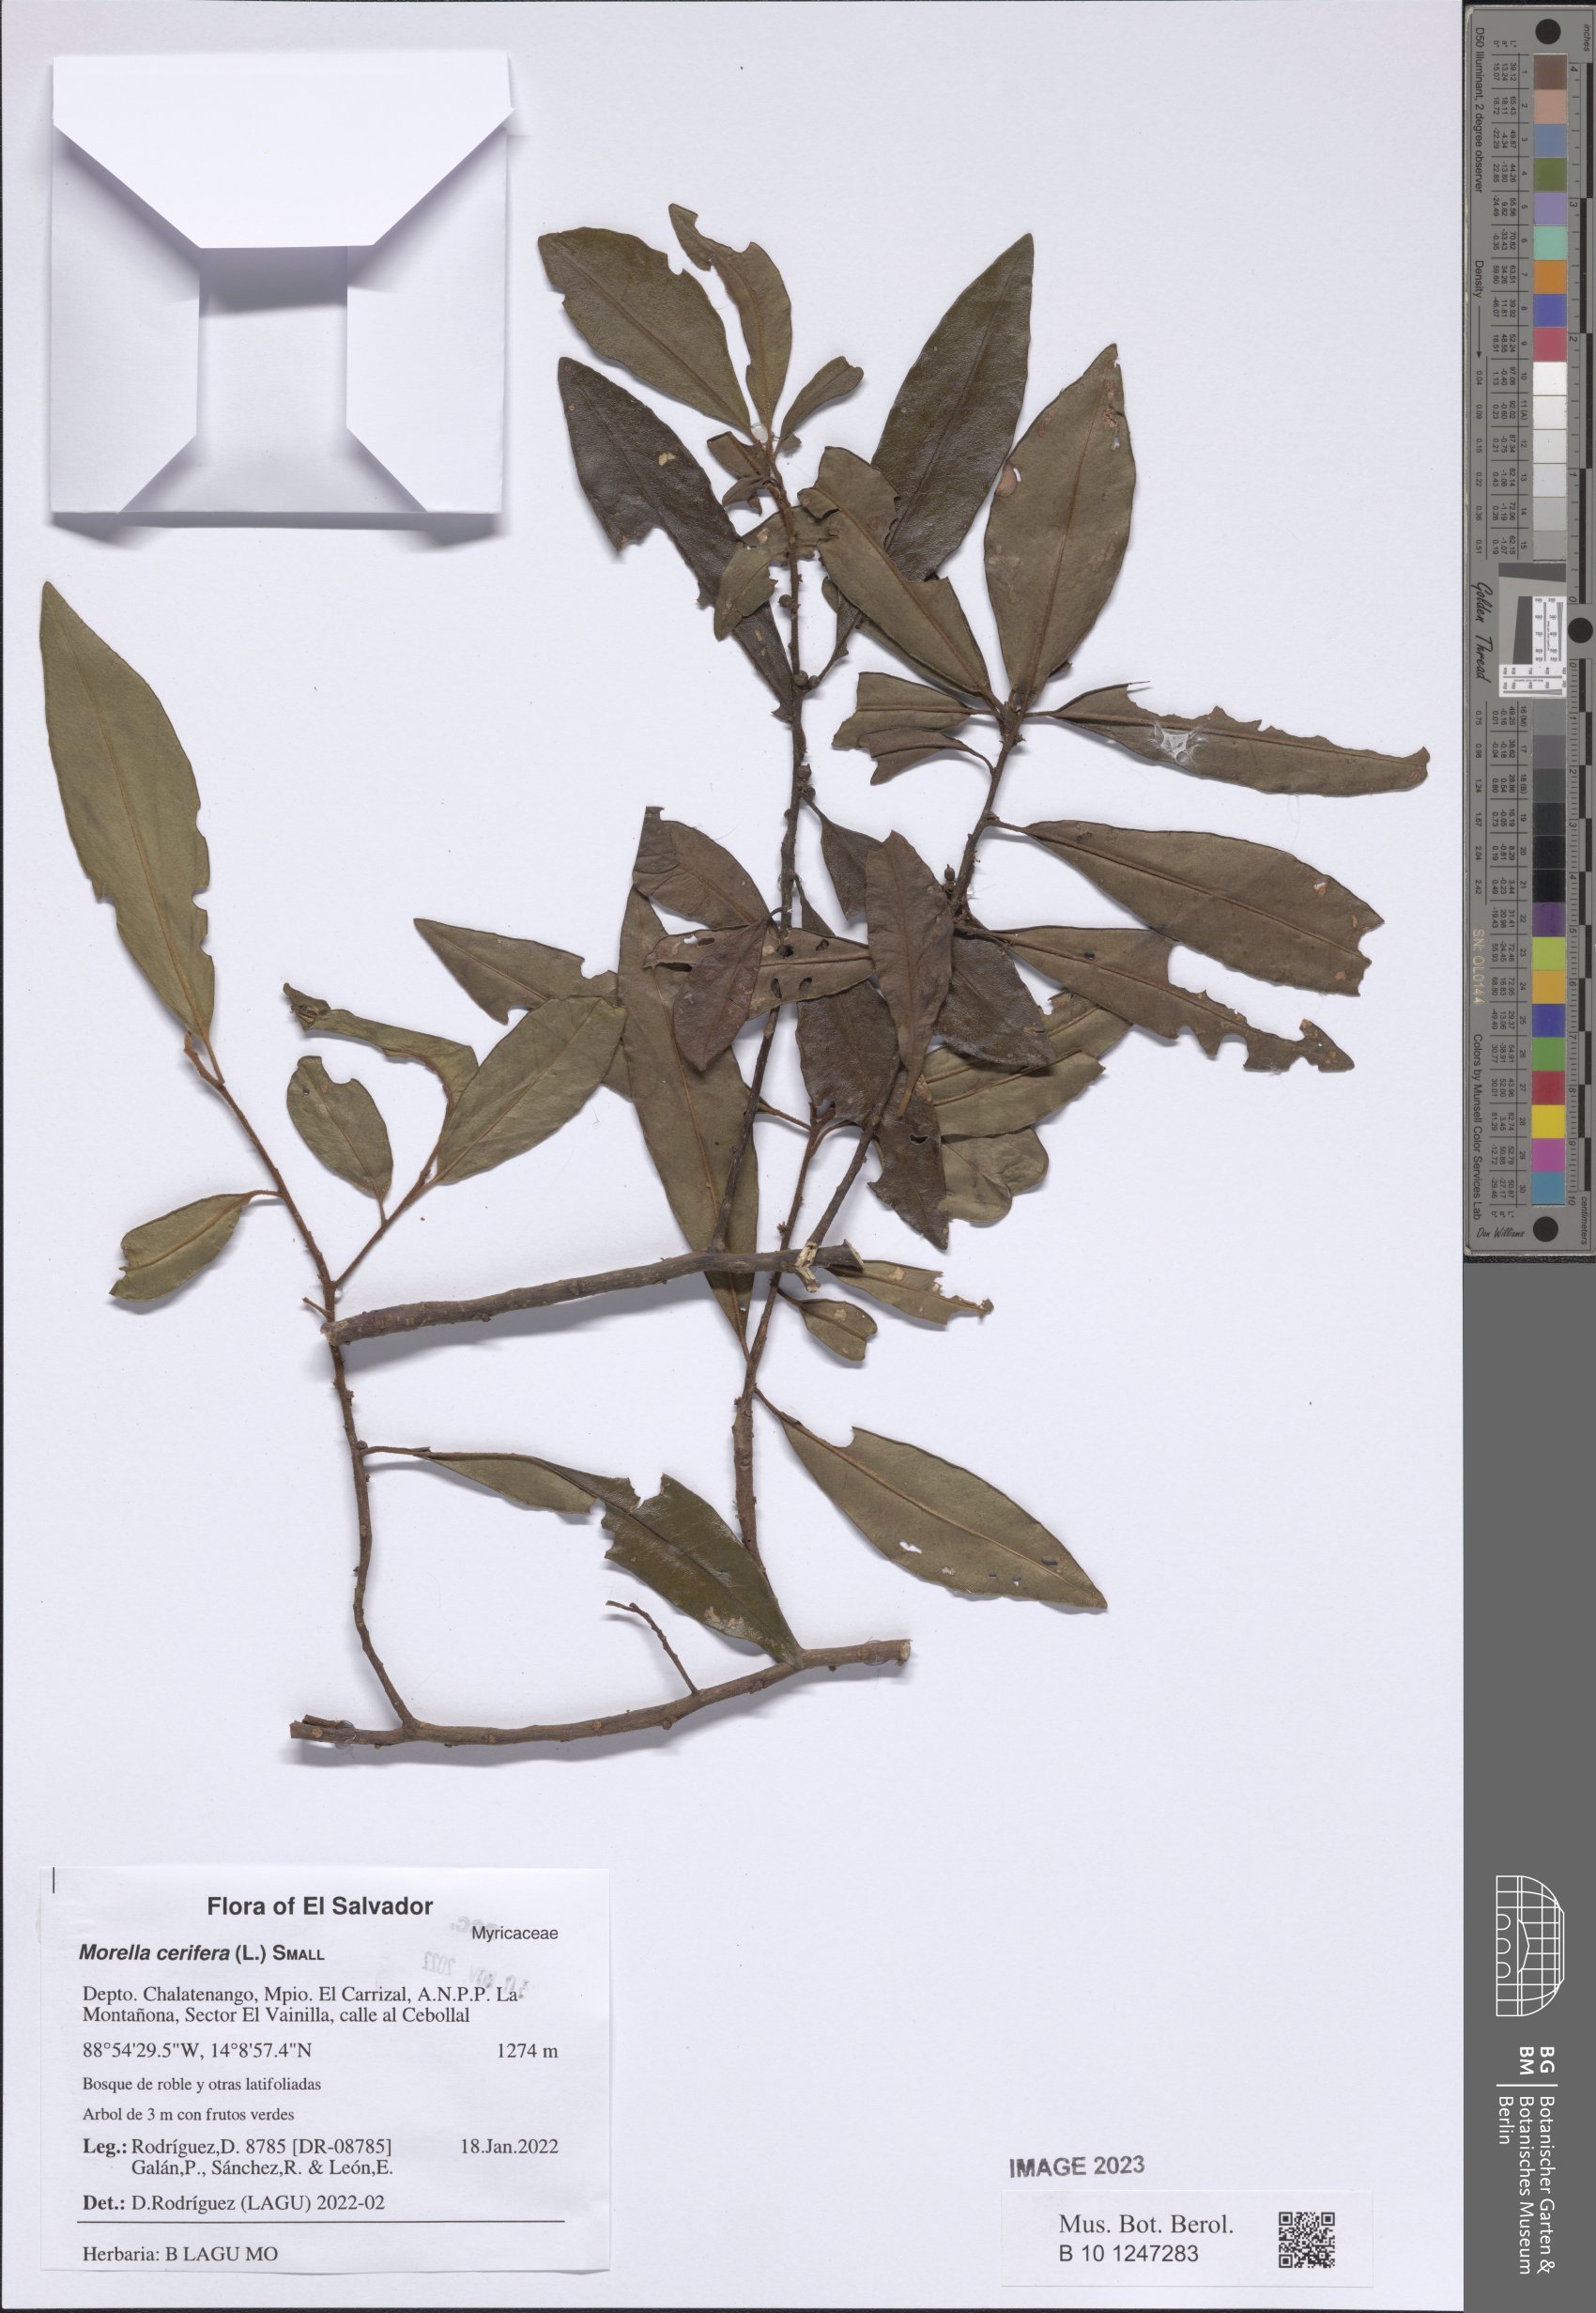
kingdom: Plantae
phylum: Tracheophyta
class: Magnoliopsida
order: Fagales
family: Myricaceae
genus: Morella
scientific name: Morella cerifera
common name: Wax myrtle
